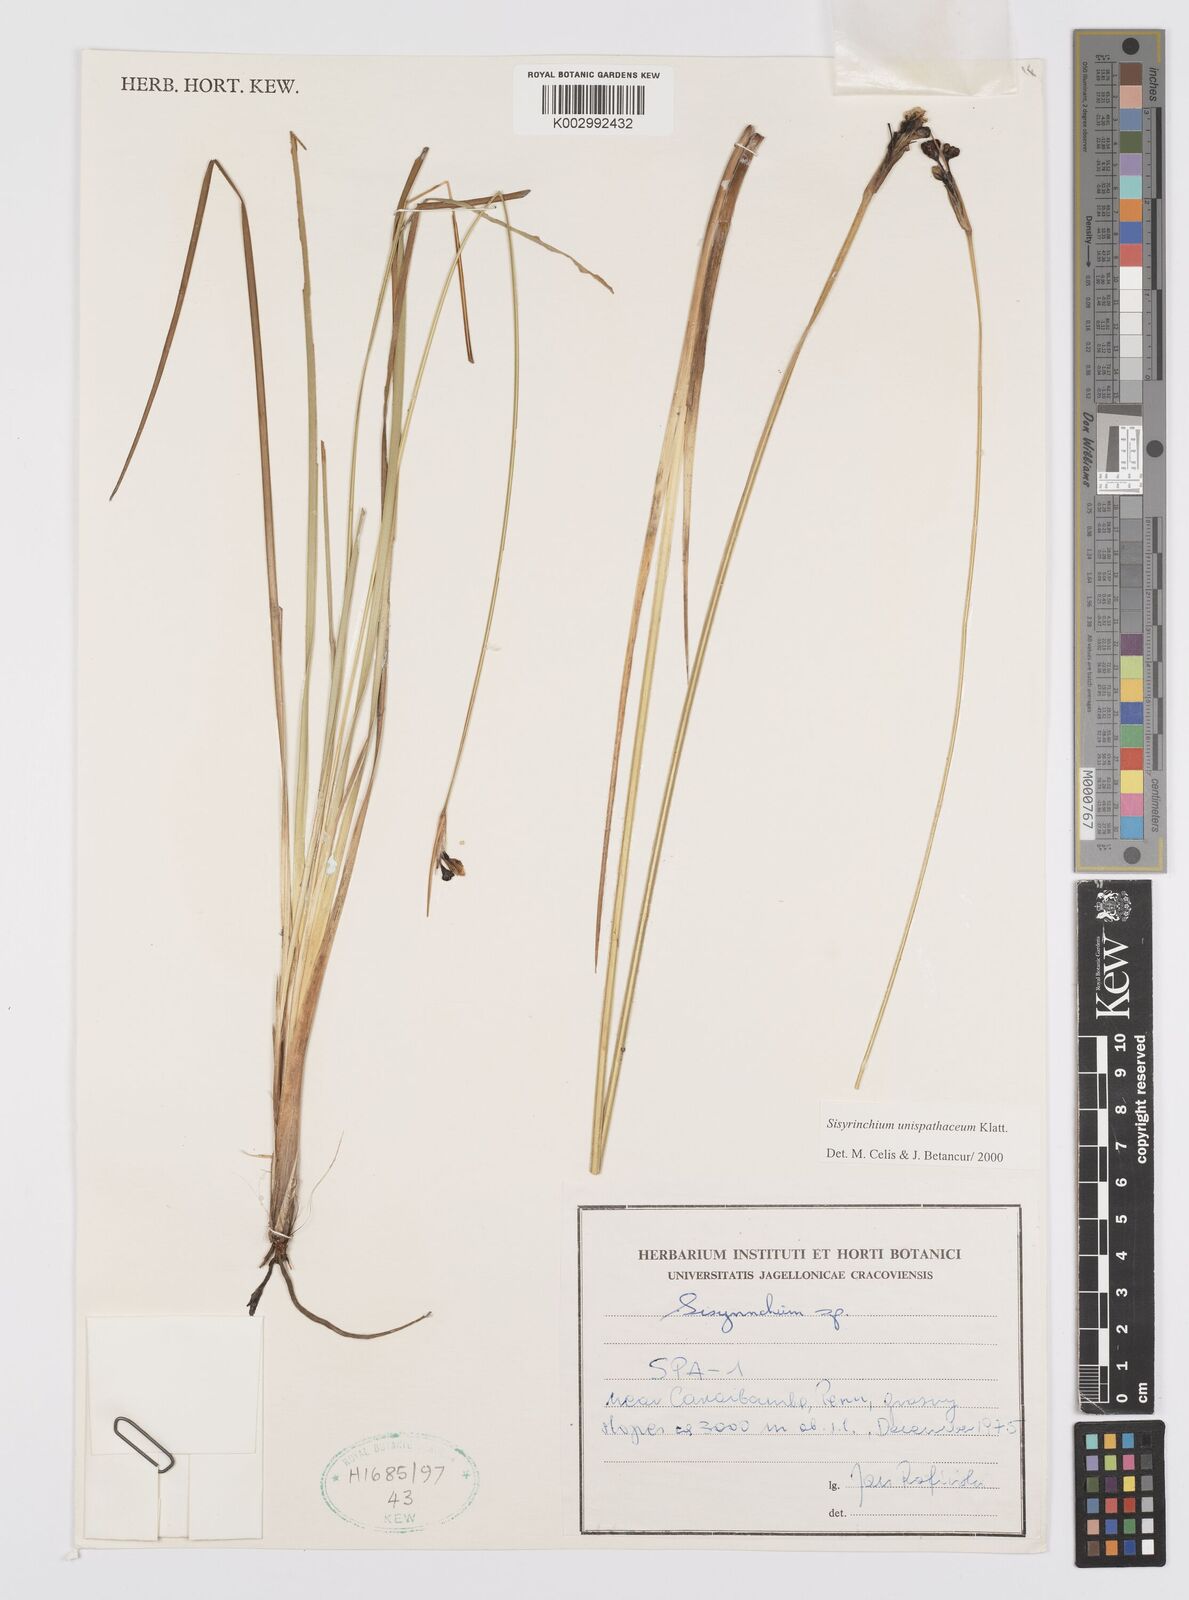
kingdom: Plantae
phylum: Tracheophyta
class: Liliopsida
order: Asparagales
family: Iridaceae
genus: Sisyrinchium
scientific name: Sisyrinchium unispathaceum
